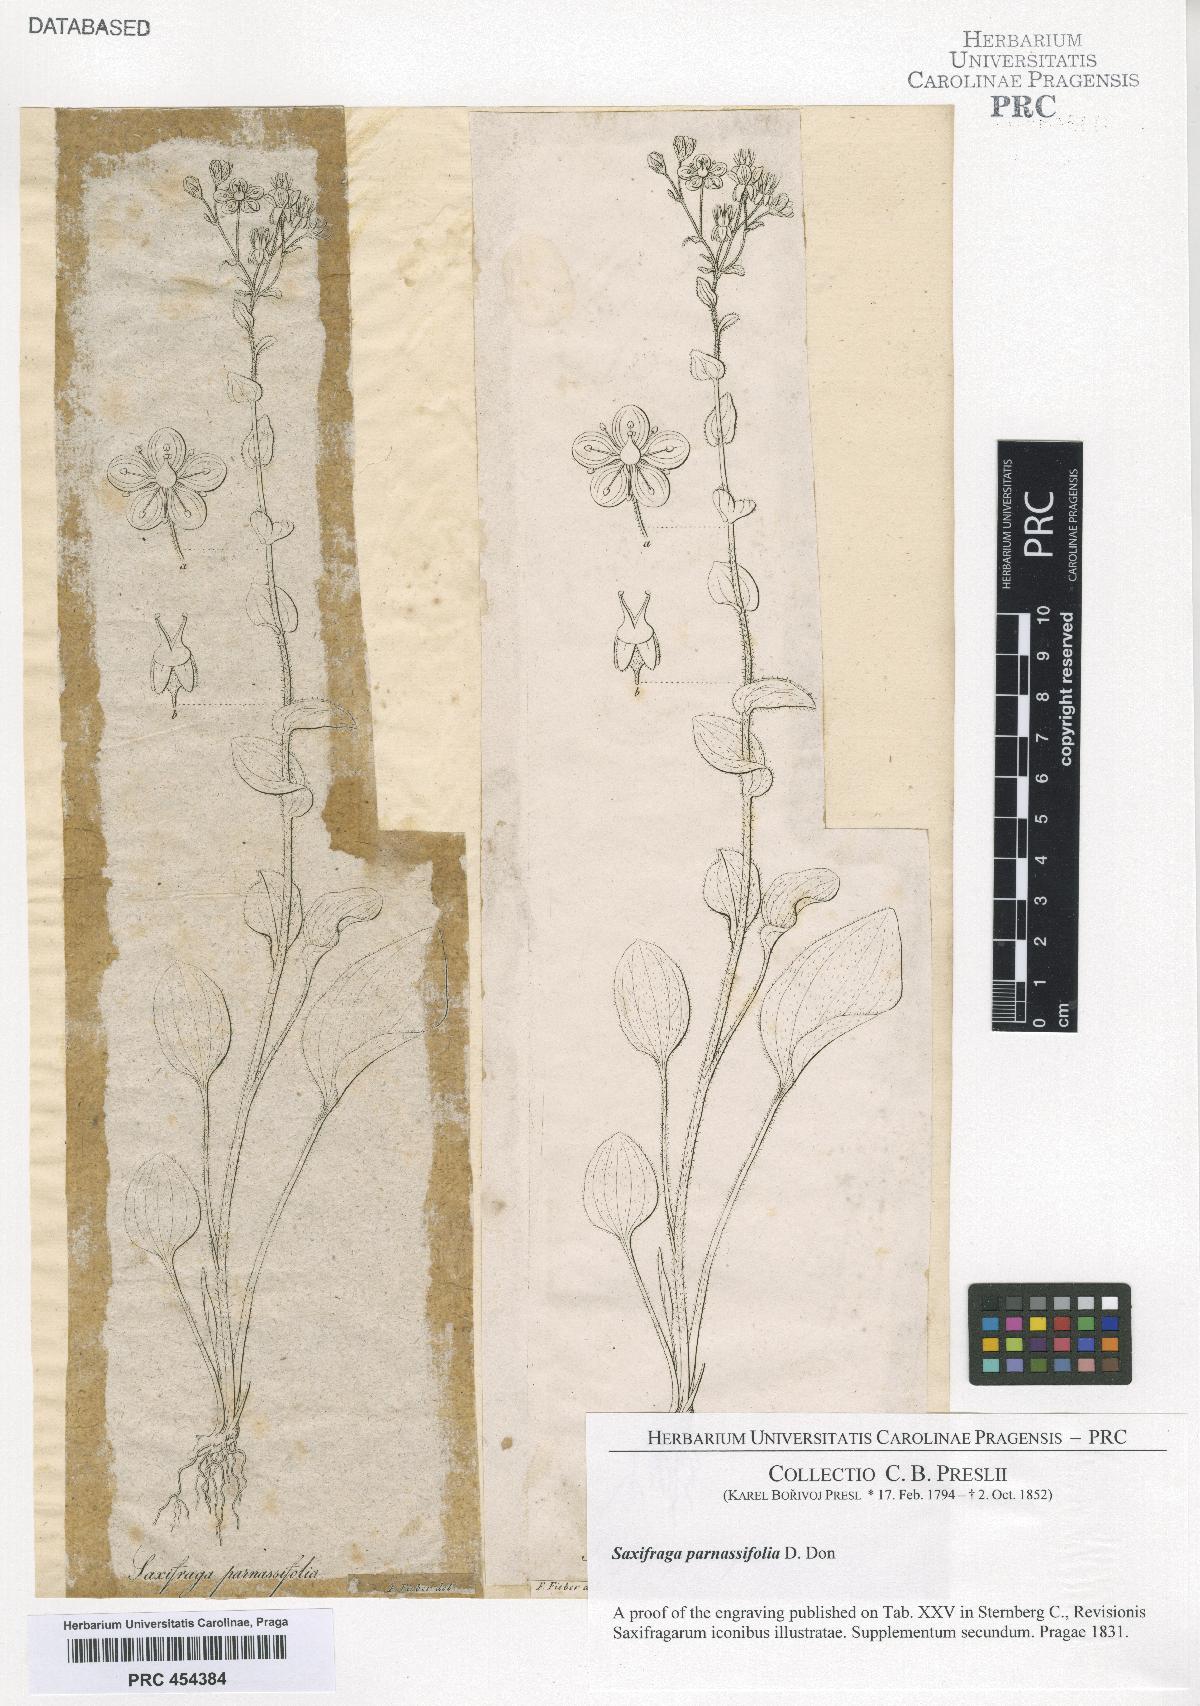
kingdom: Plantae
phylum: Tracheophyta
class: Magnoliopsida
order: Saxifragales
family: Saxifragaceae
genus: Saxifraga
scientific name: Saxifraga hookeri
